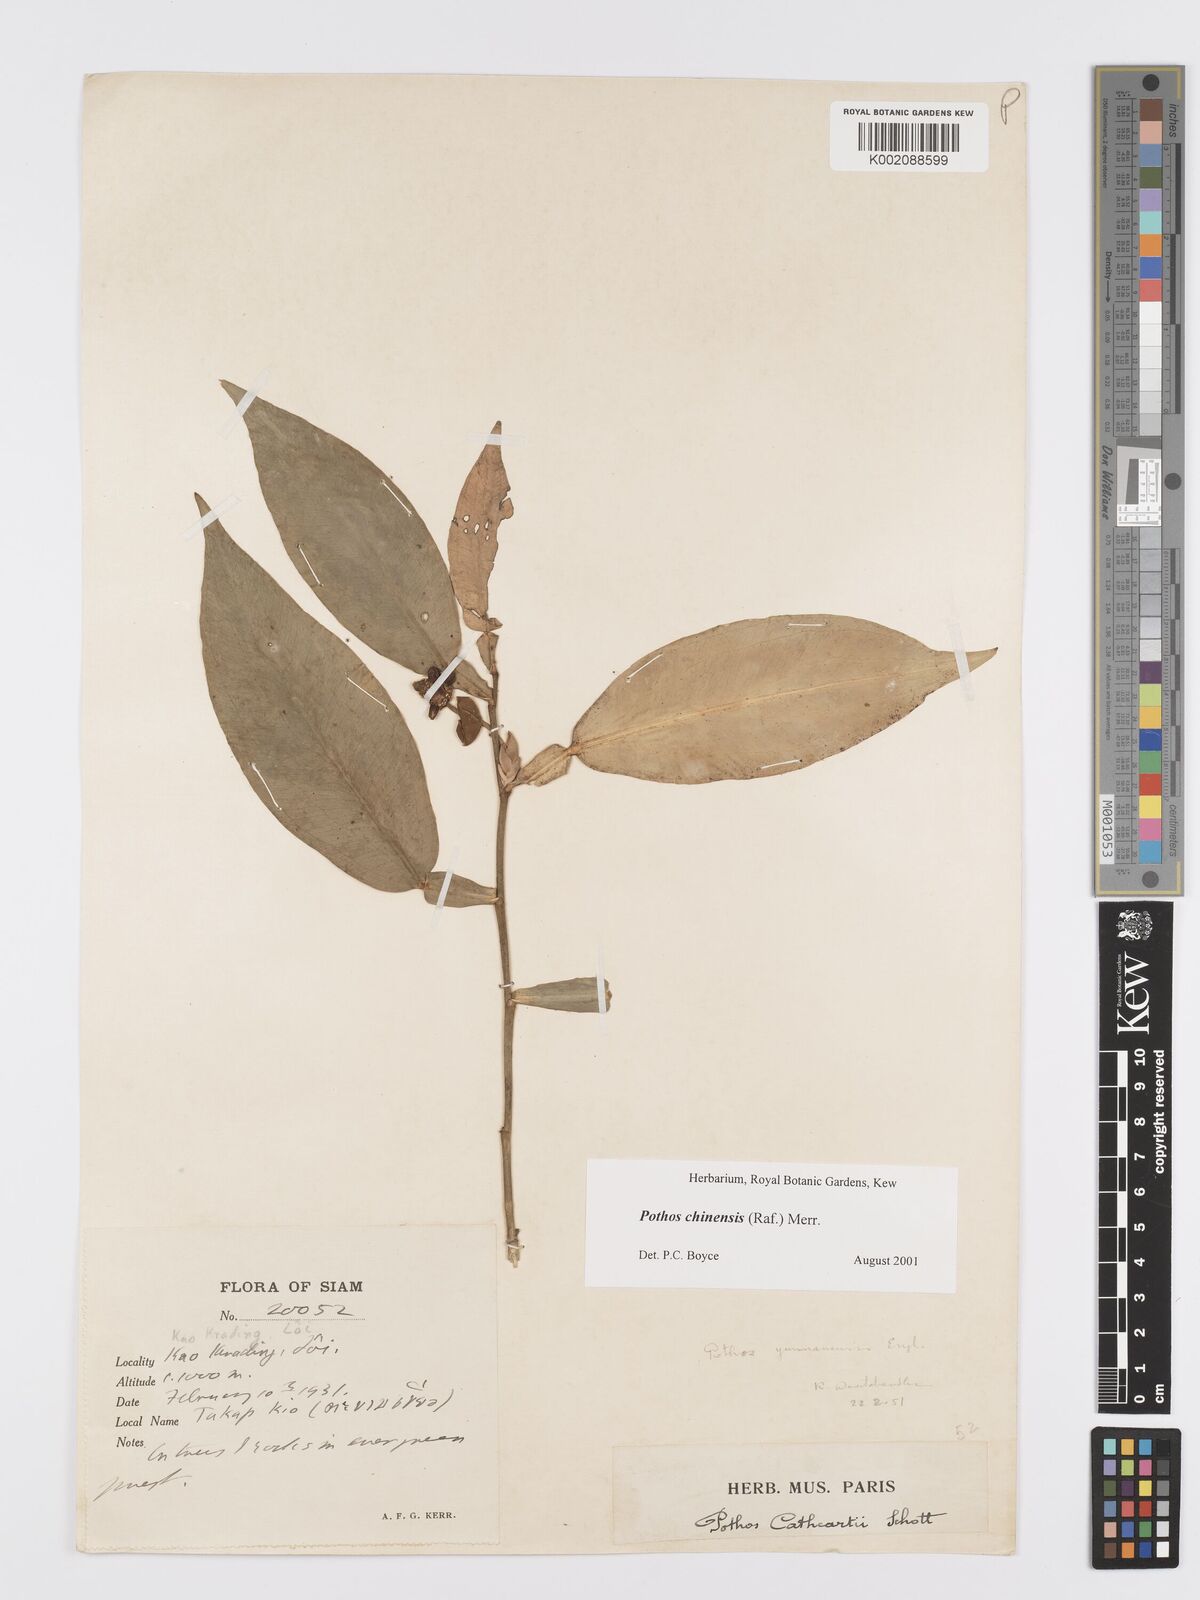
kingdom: Plantae
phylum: Tracheophyta
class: Liliopsida
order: Alismatales
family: Araceae
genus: Pothos
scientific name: Pothos chinensis
